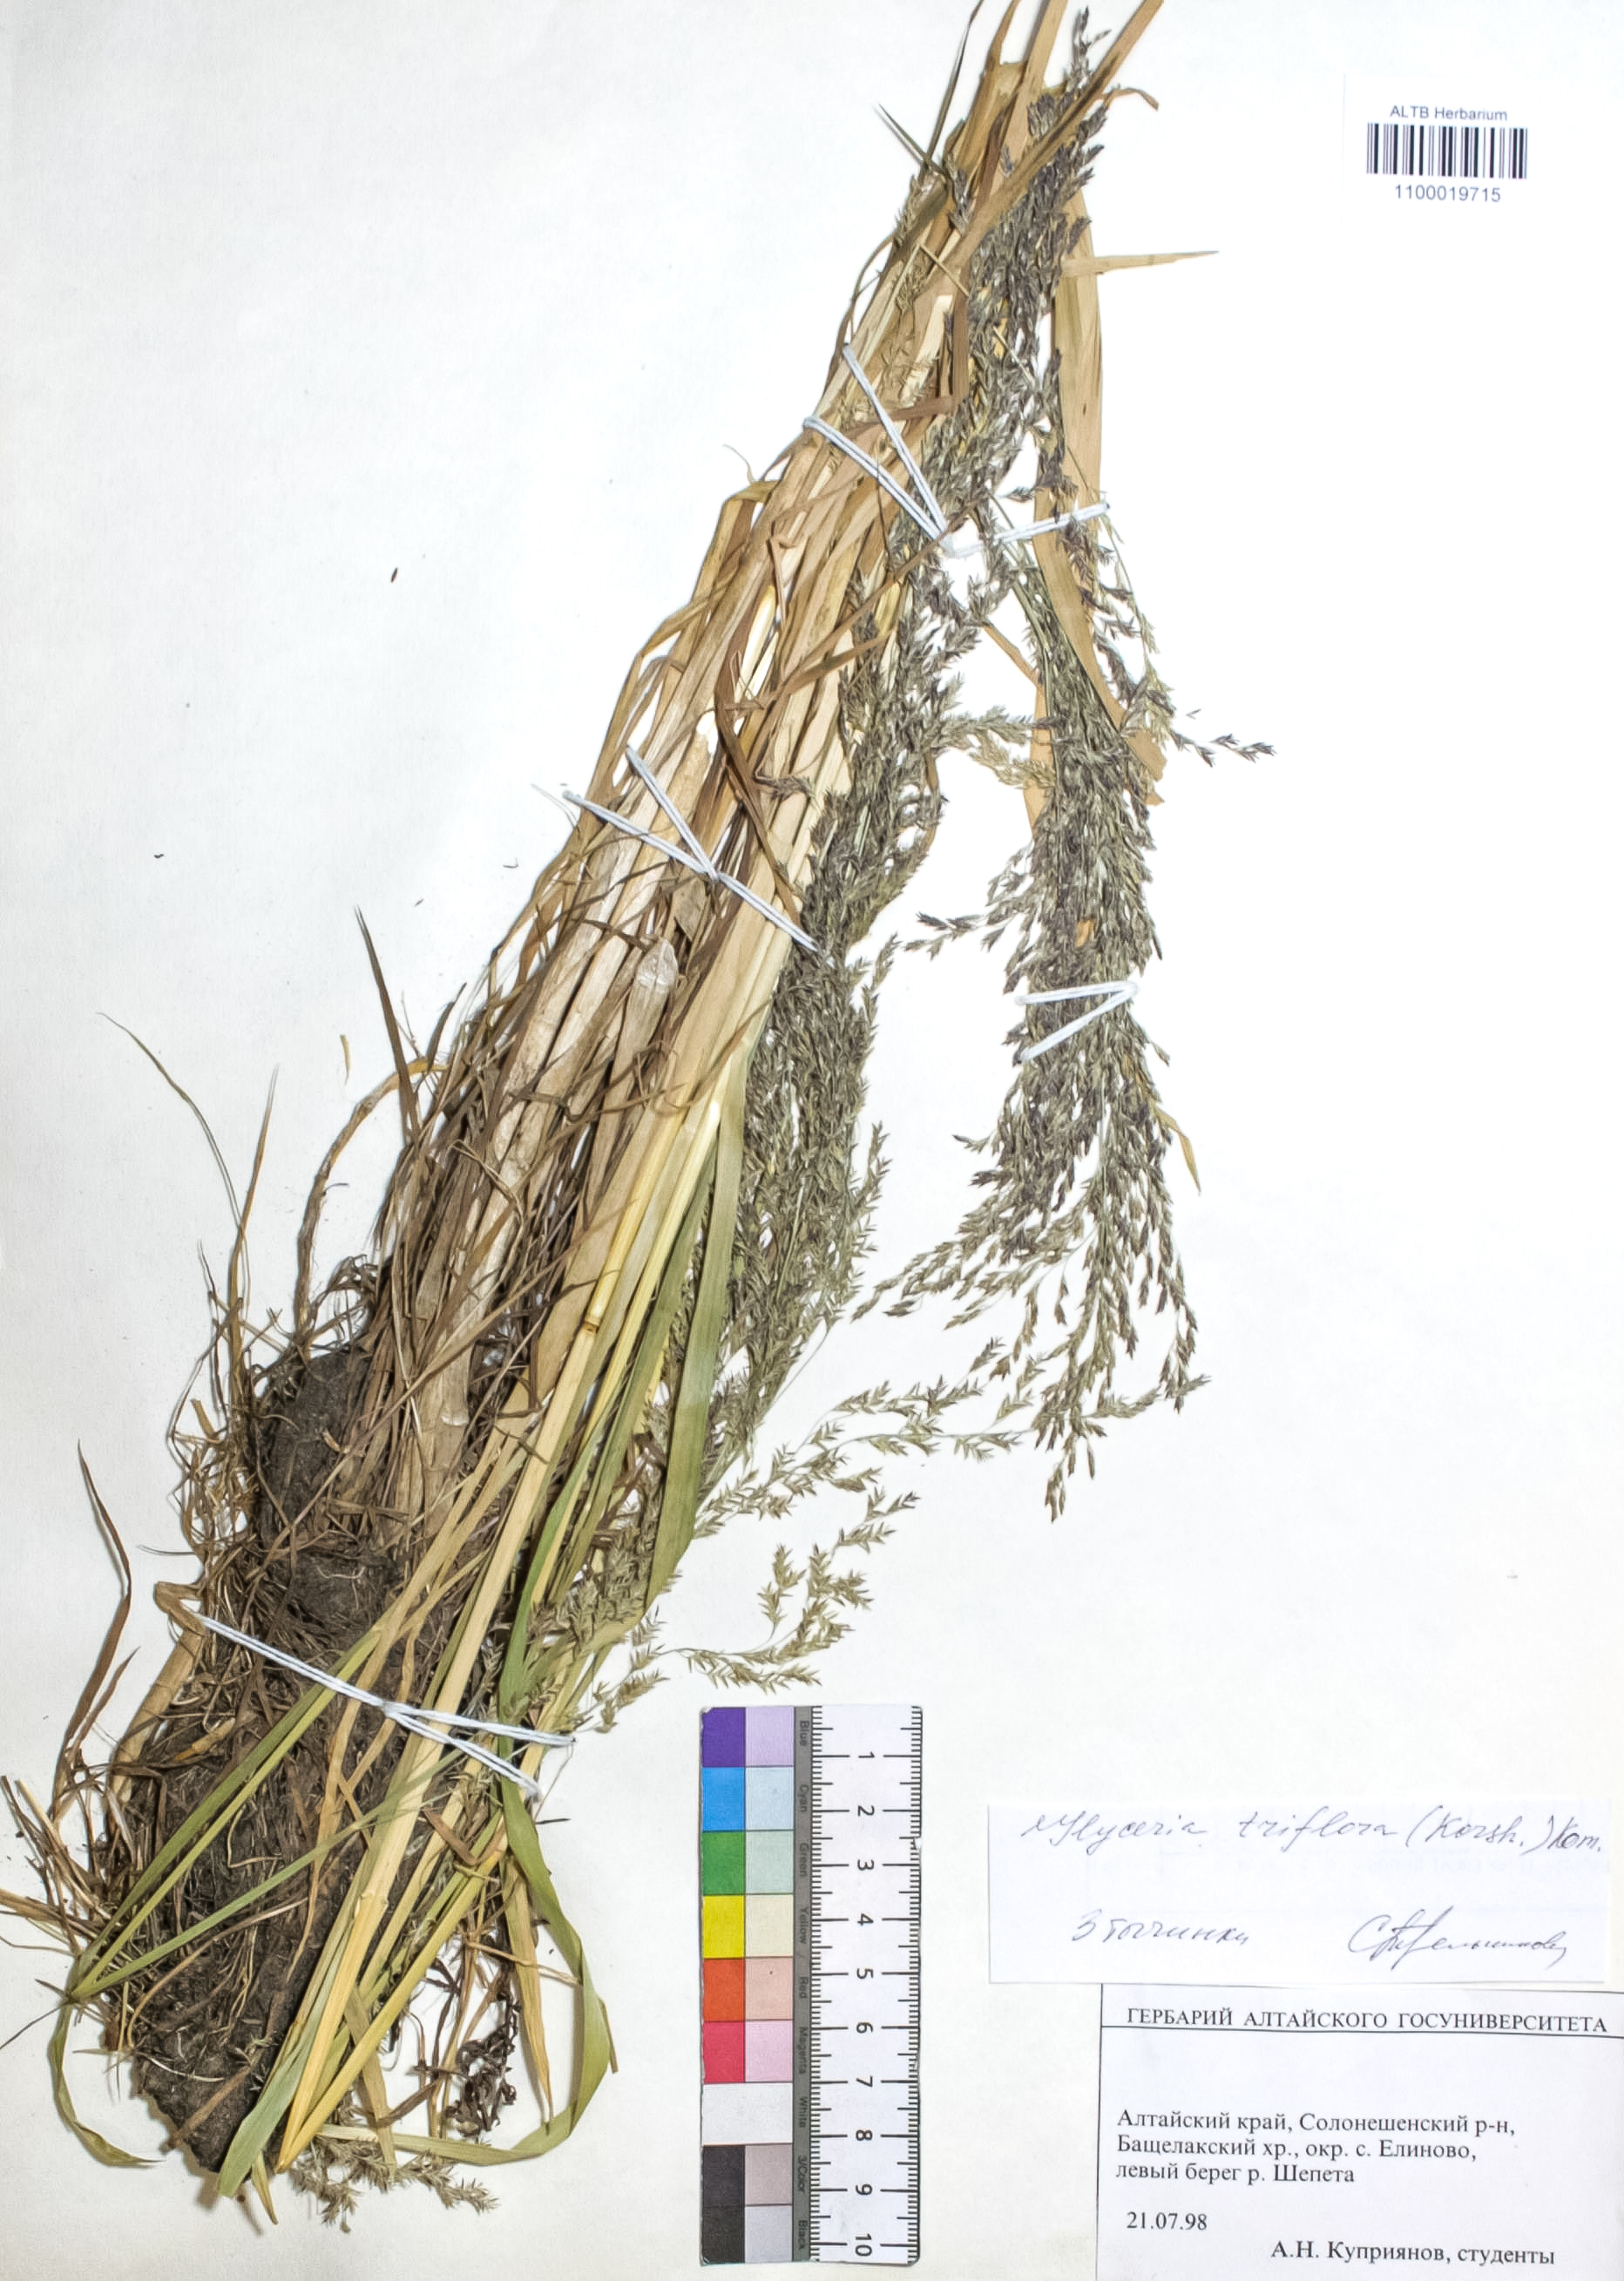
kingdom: Plantae
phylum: Tracheophyta
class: Liliopsida
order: Poales
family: Poaceae
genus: Glyceria
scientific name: Glyceria lithuanica
